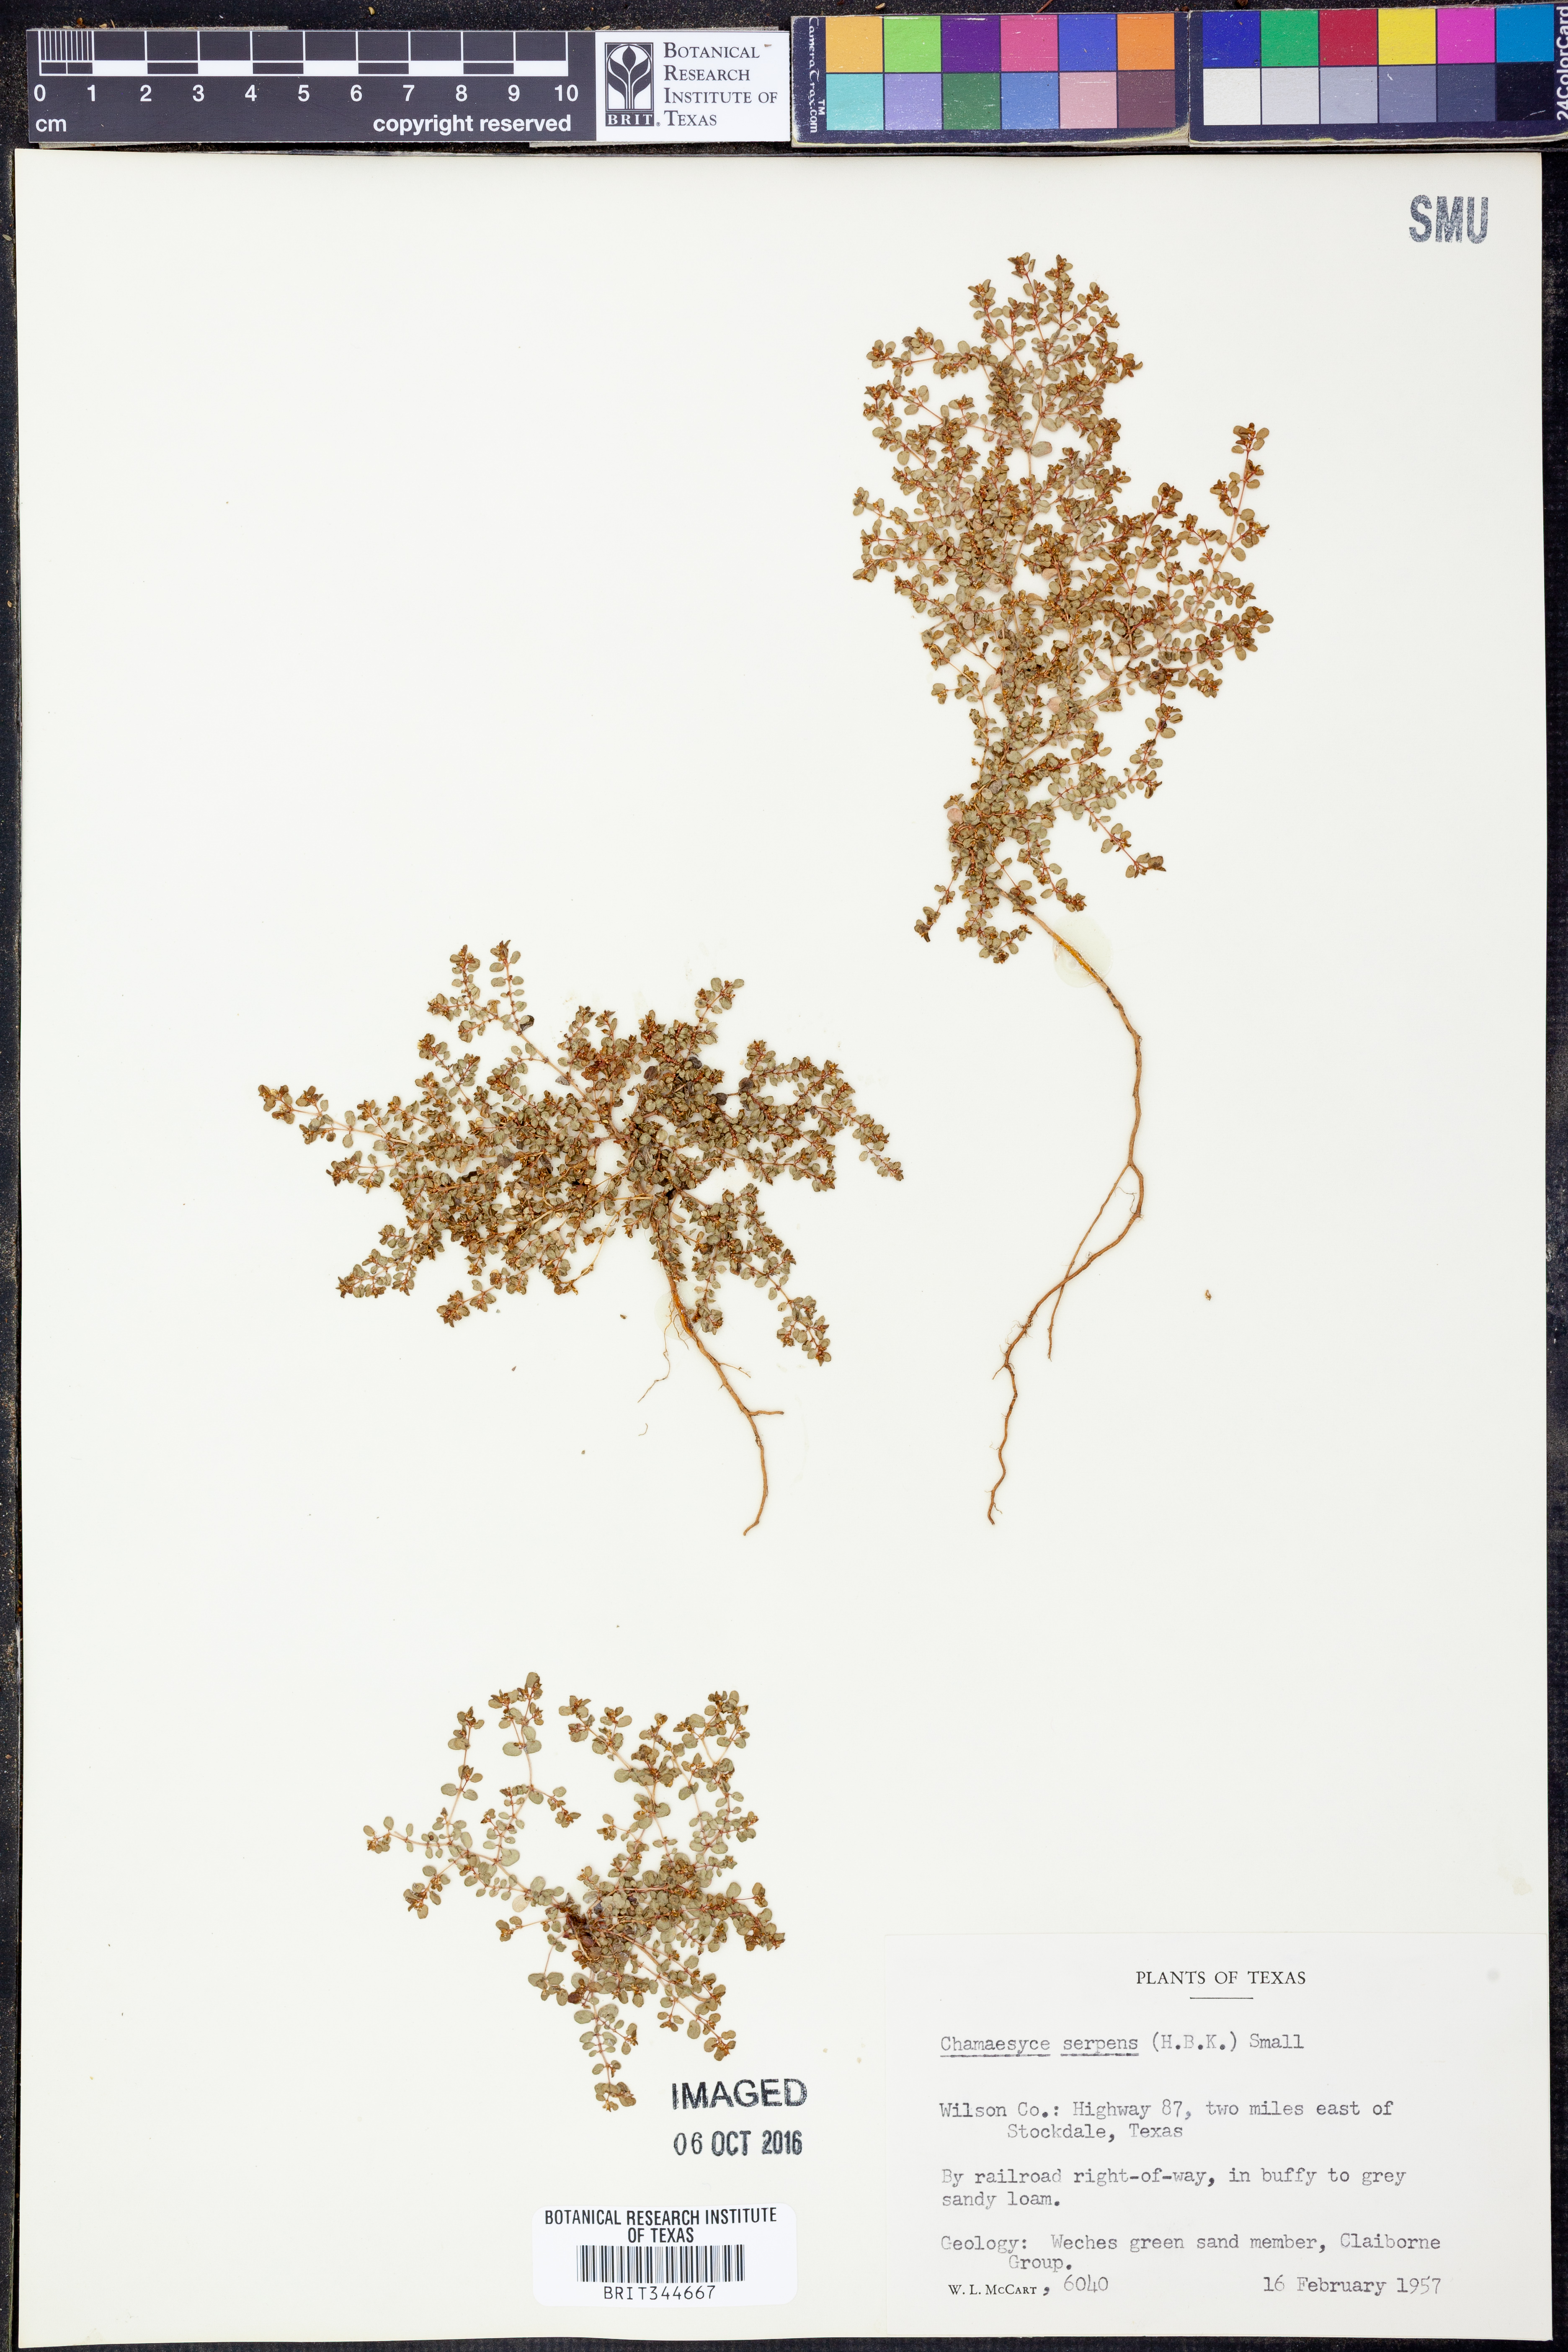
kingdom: Plantae
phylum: Tracheophyta
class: Magnoliopsida
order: Malpighiales
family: Euphorbiaceae
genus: Euphorbia
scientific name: Euphorbia serpens
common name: Matted sandmat
